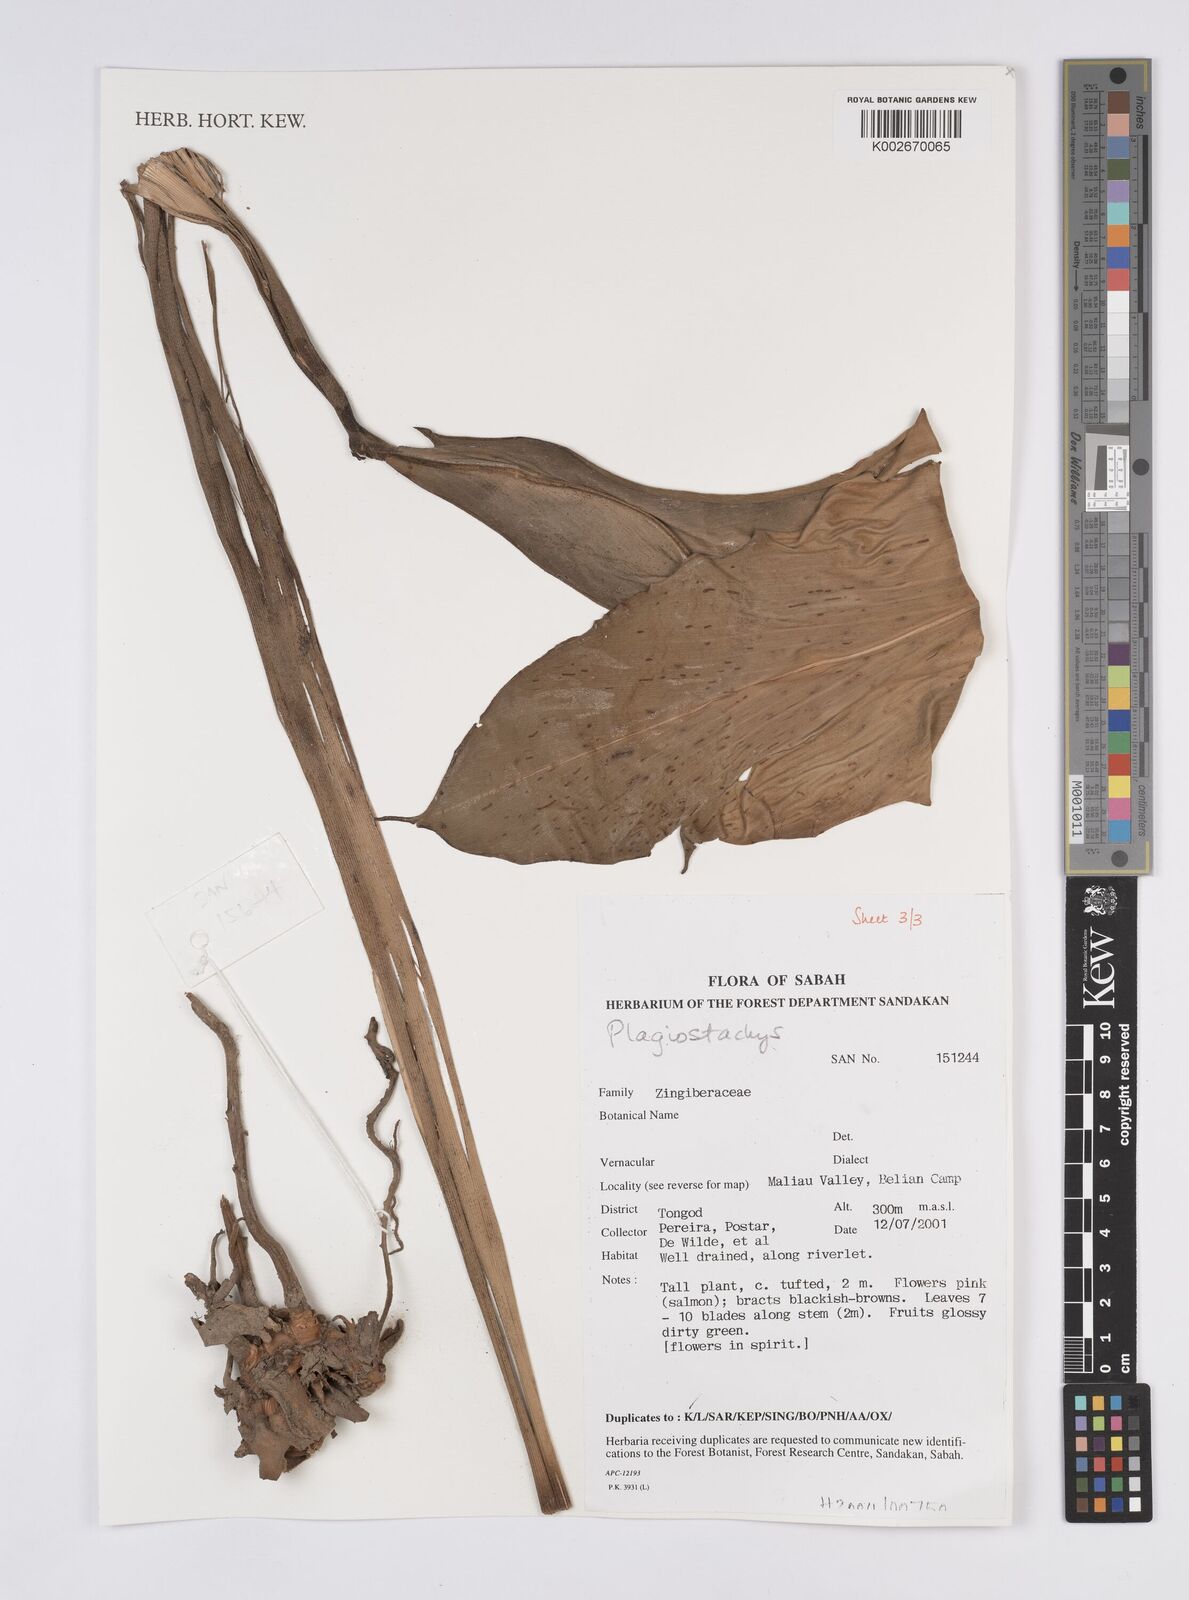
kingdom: Plantae
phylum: Tracheophyta
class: Liliopsida
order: Zingiberales
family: Zingiberaceae
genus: Plagiostachys
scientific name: Plagiostachys
